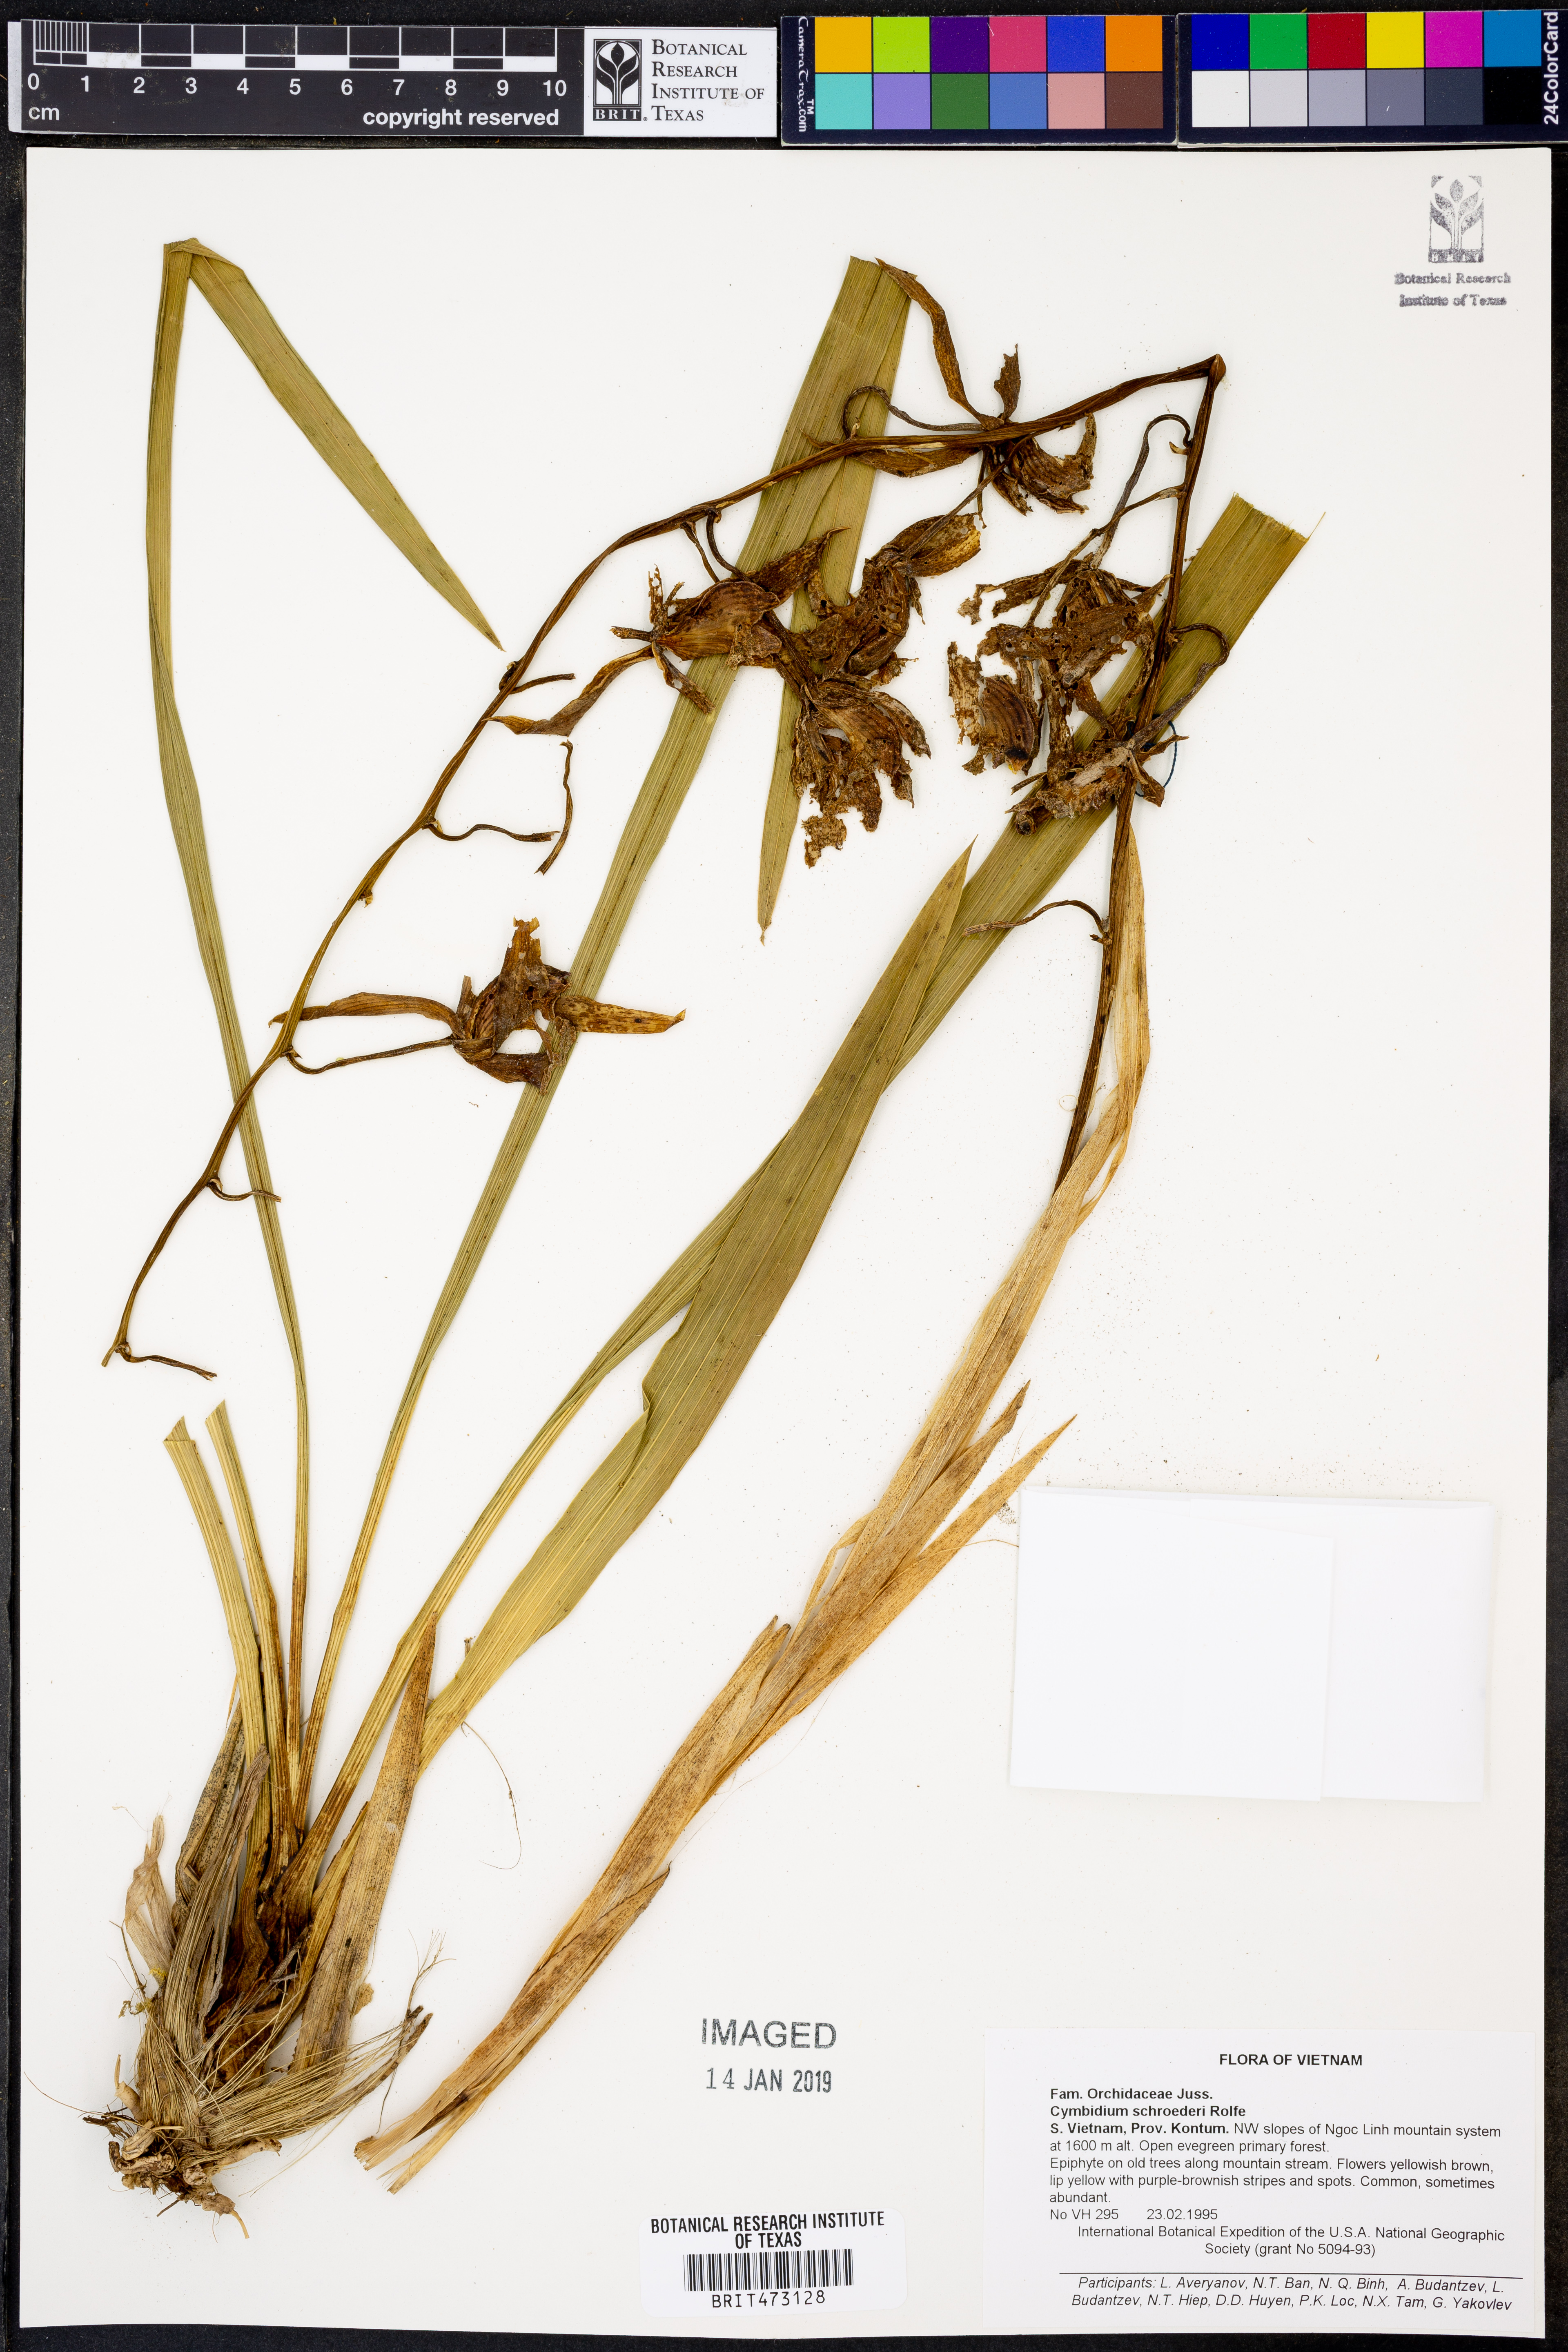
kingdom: Plantae
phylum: Tracheophyta
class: Liliopsida
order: Asparagales
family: Orchidaceae
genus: Cymbidium
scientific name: Cymbidium schroederi
